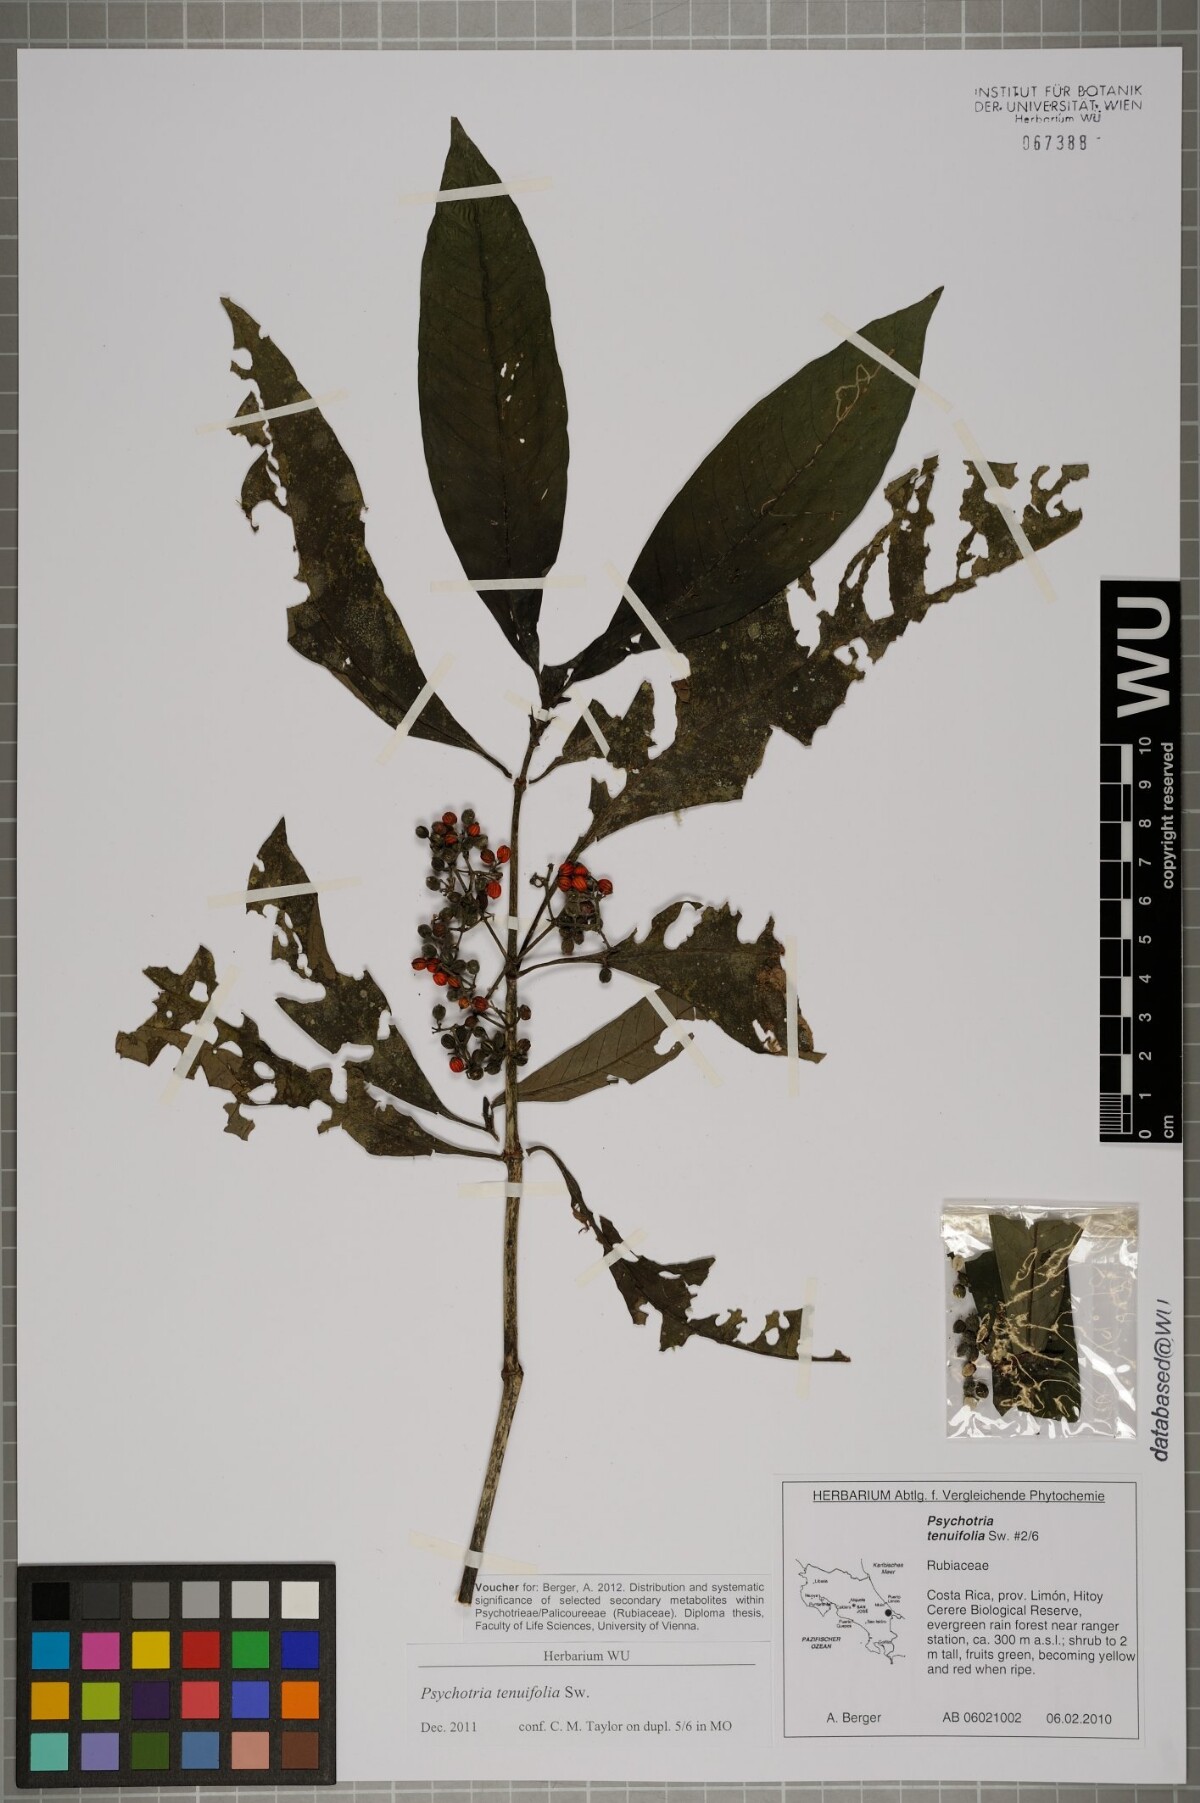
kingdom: Plantae
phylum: Tracheophyta
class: Magnoliopsida
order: Gentianales
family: Rubiaceae
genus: Psychotria
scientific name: Psychotria tenuifolia
